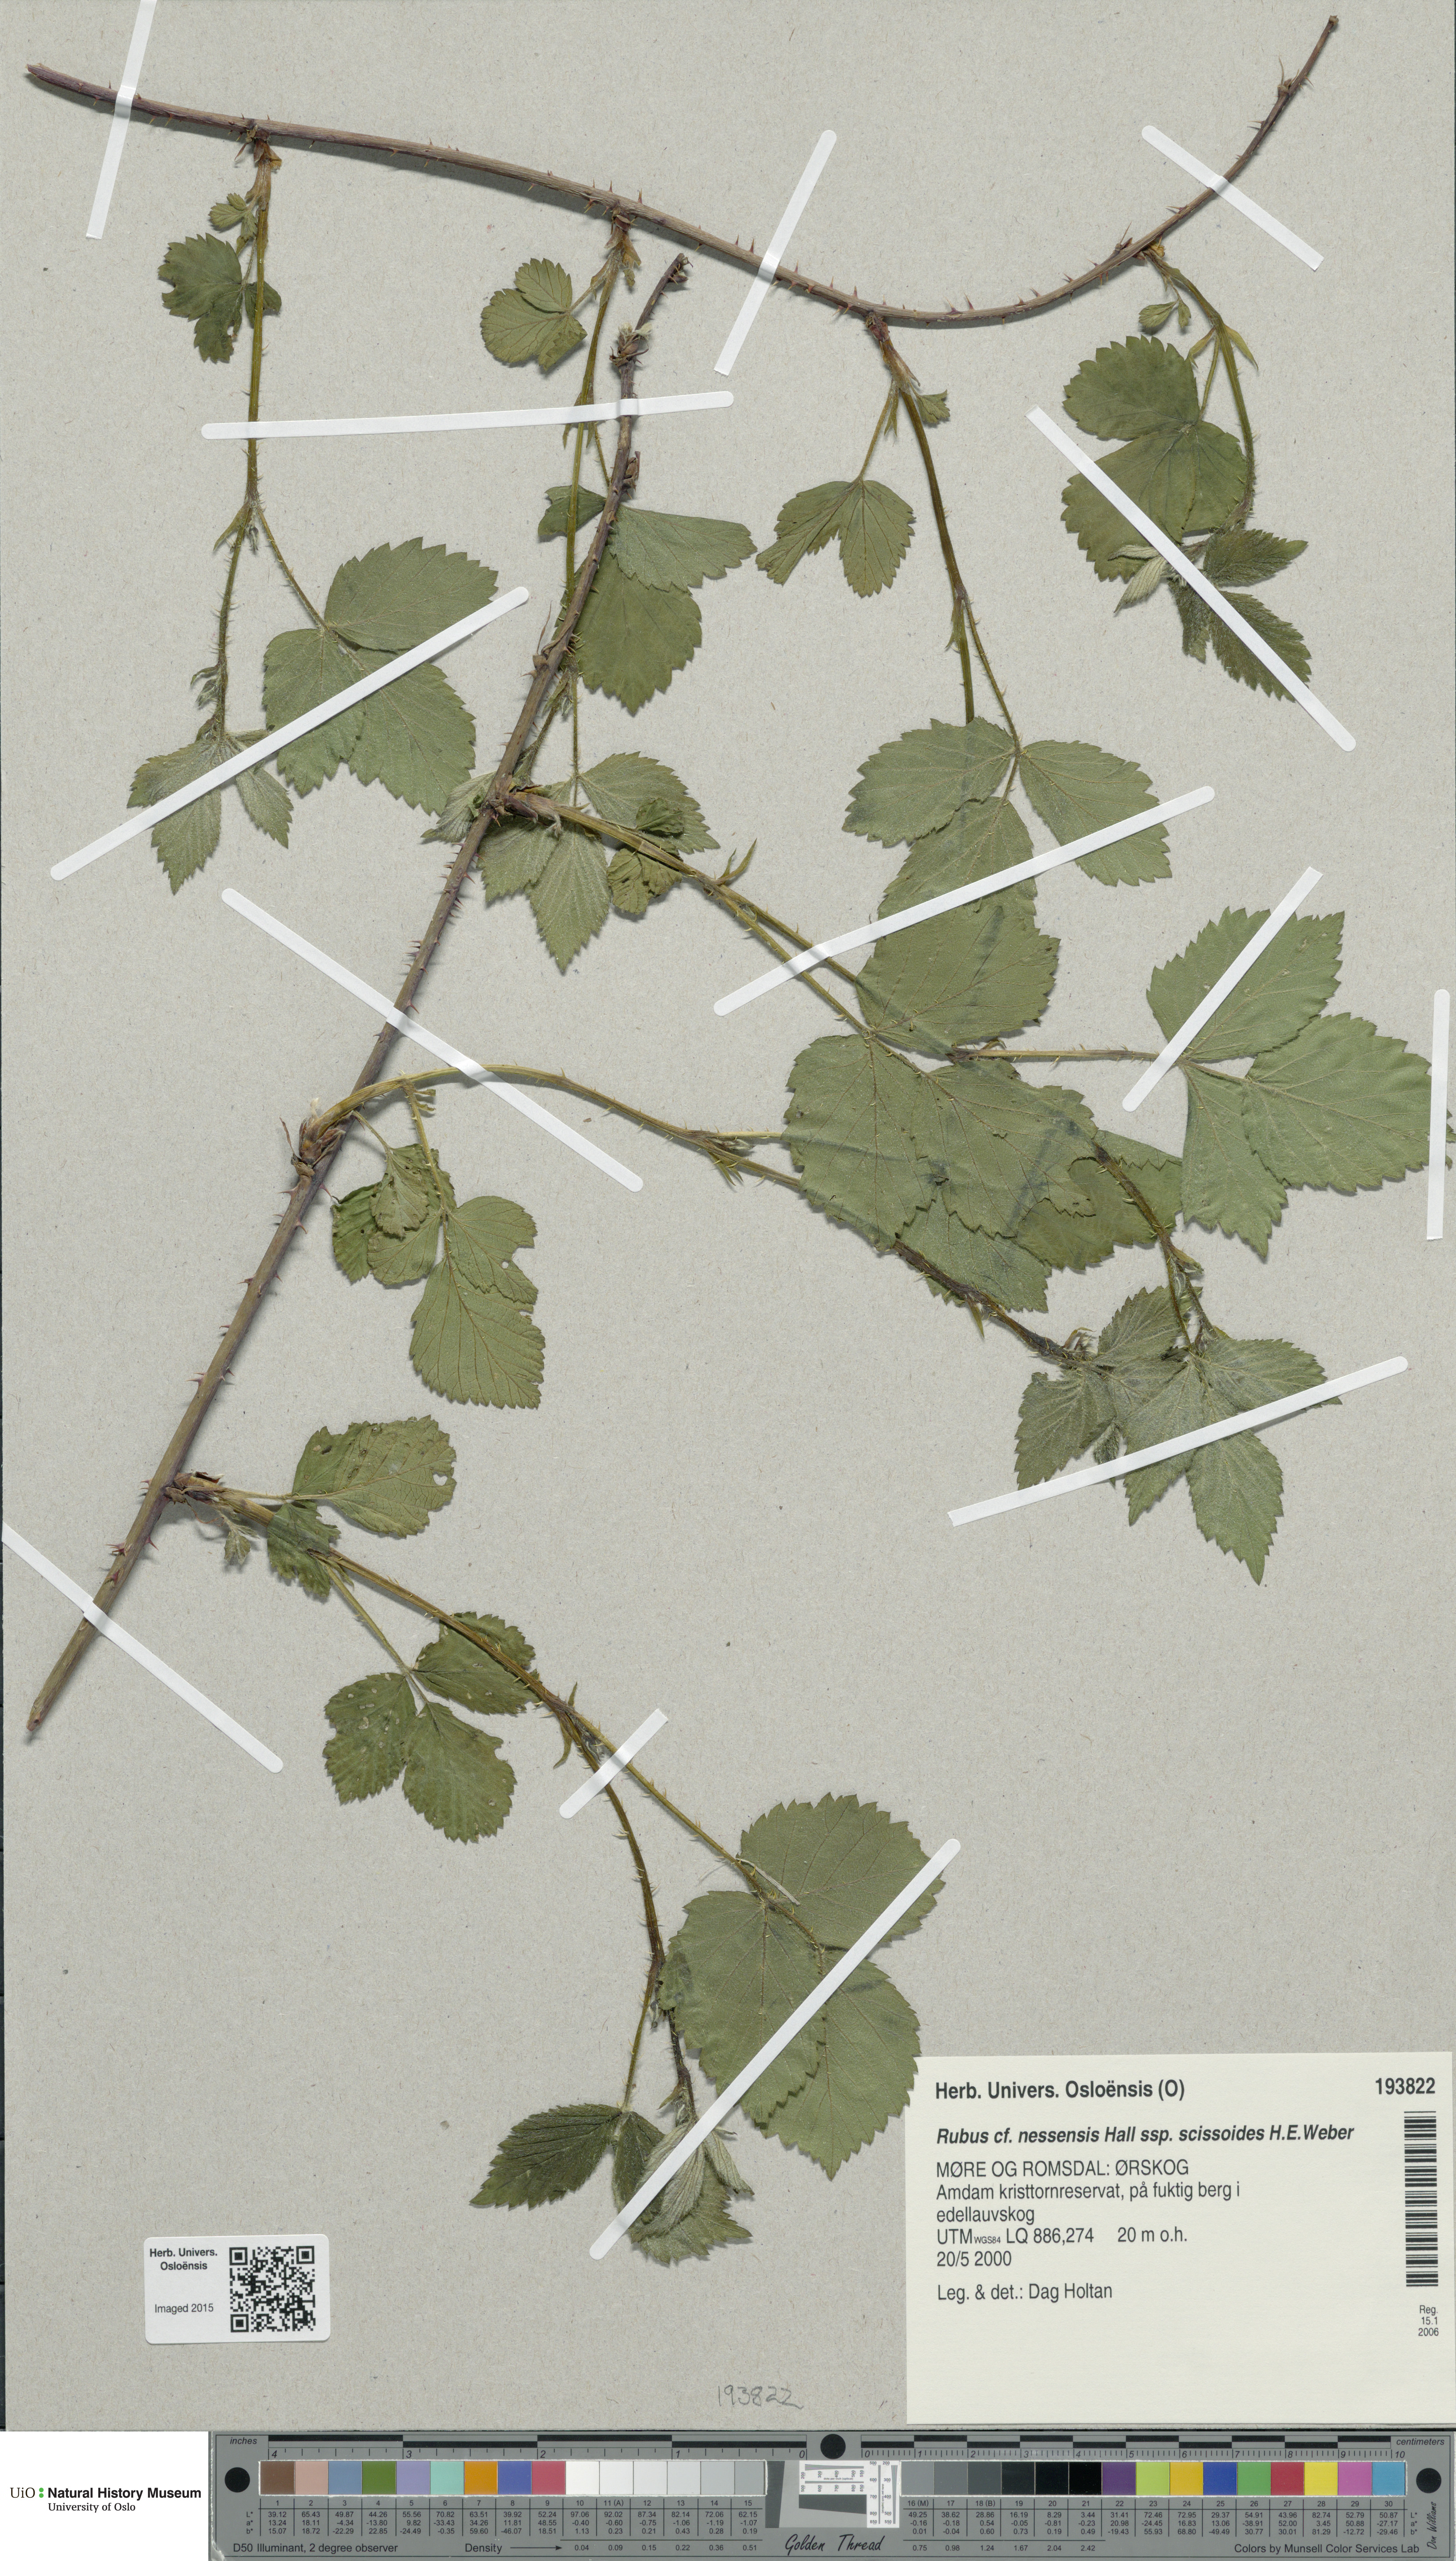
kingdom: Plantae
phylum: Tracheophyta
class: Magnoliopsida
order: Rosales
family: Rosaceae
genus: Rubus
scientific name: Rubus scissus
